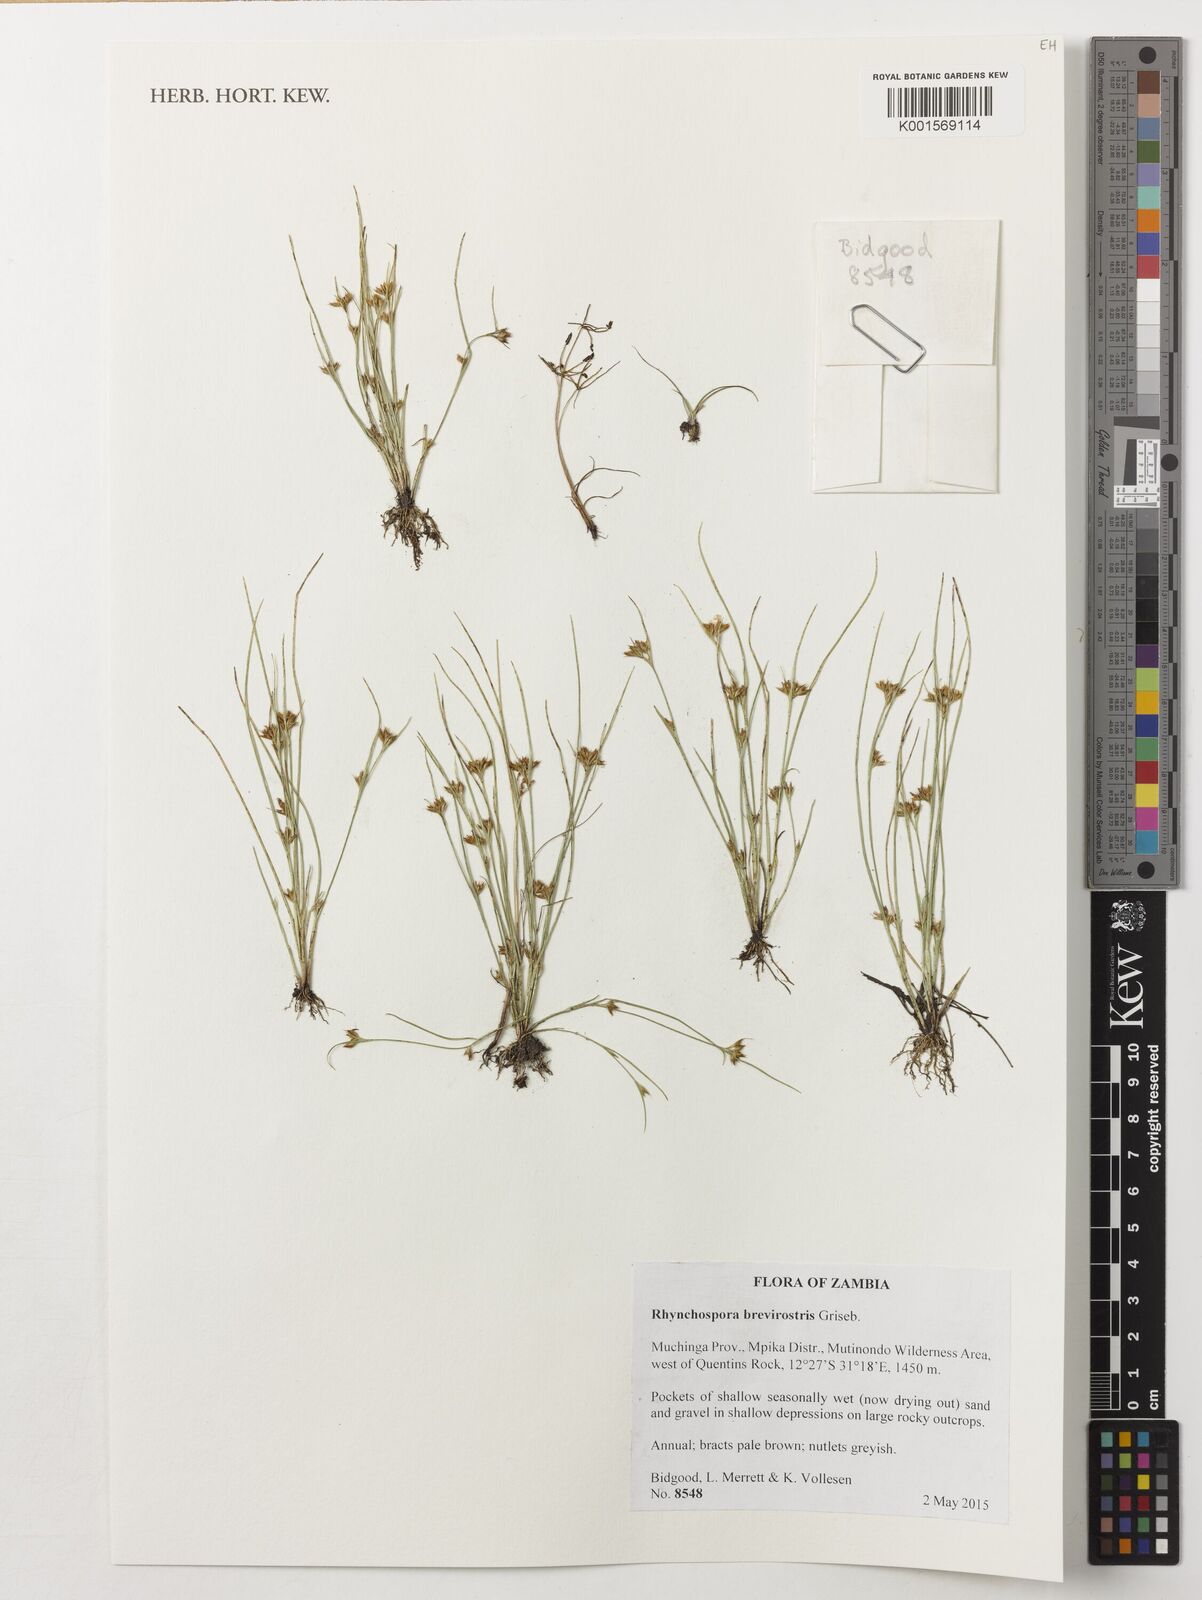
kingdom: Plantae
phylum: Tracheophyta
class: Liliopsida
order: Poales
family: Cyperaceae
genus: Rhynchospora
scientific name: Rhynchospora brevirostris
